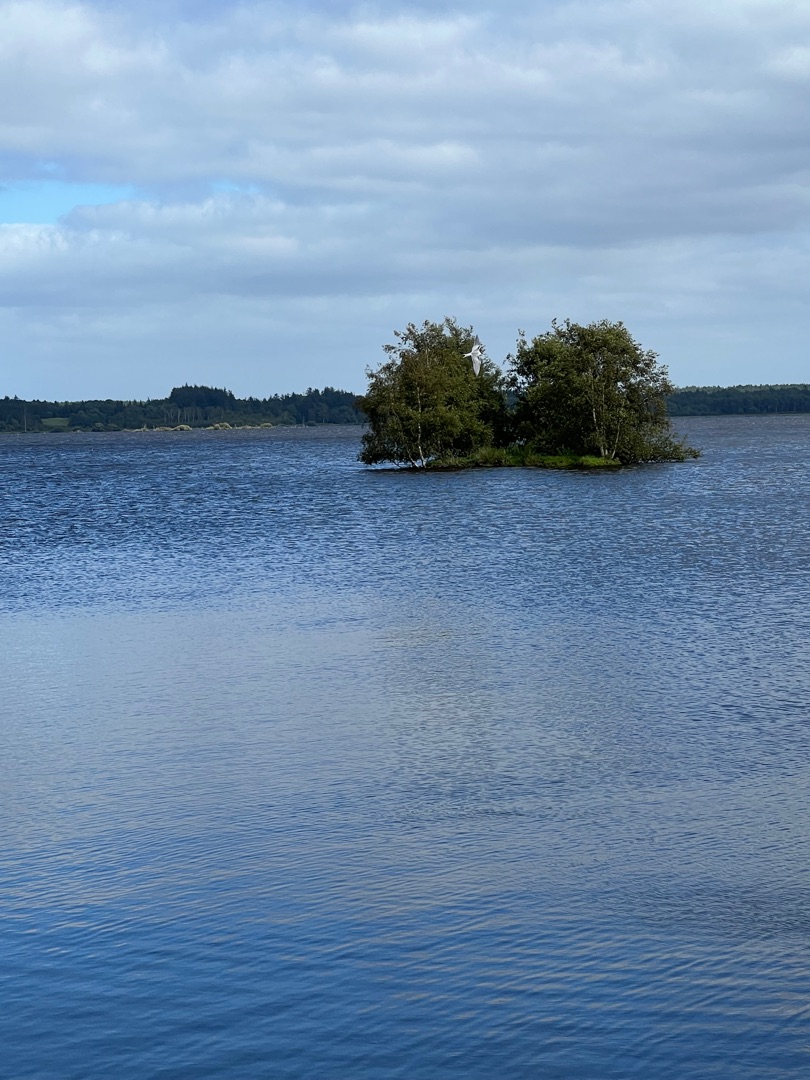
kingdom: Animalia
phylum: Chordata
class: Aves
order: Charadriiformes
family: Laridae
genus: Chroicocephalus
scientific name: Chroicocephalus ridibundus
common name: Hættemåge
